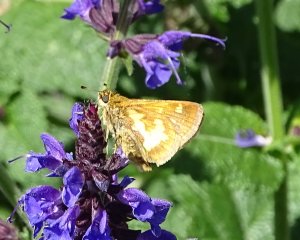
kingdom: Animalia
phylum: Arthropoda
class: Insecta
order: Lepidoptera
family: Hesperiidae
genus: Polites
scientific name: Polites coras
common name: Peck's Skipper
